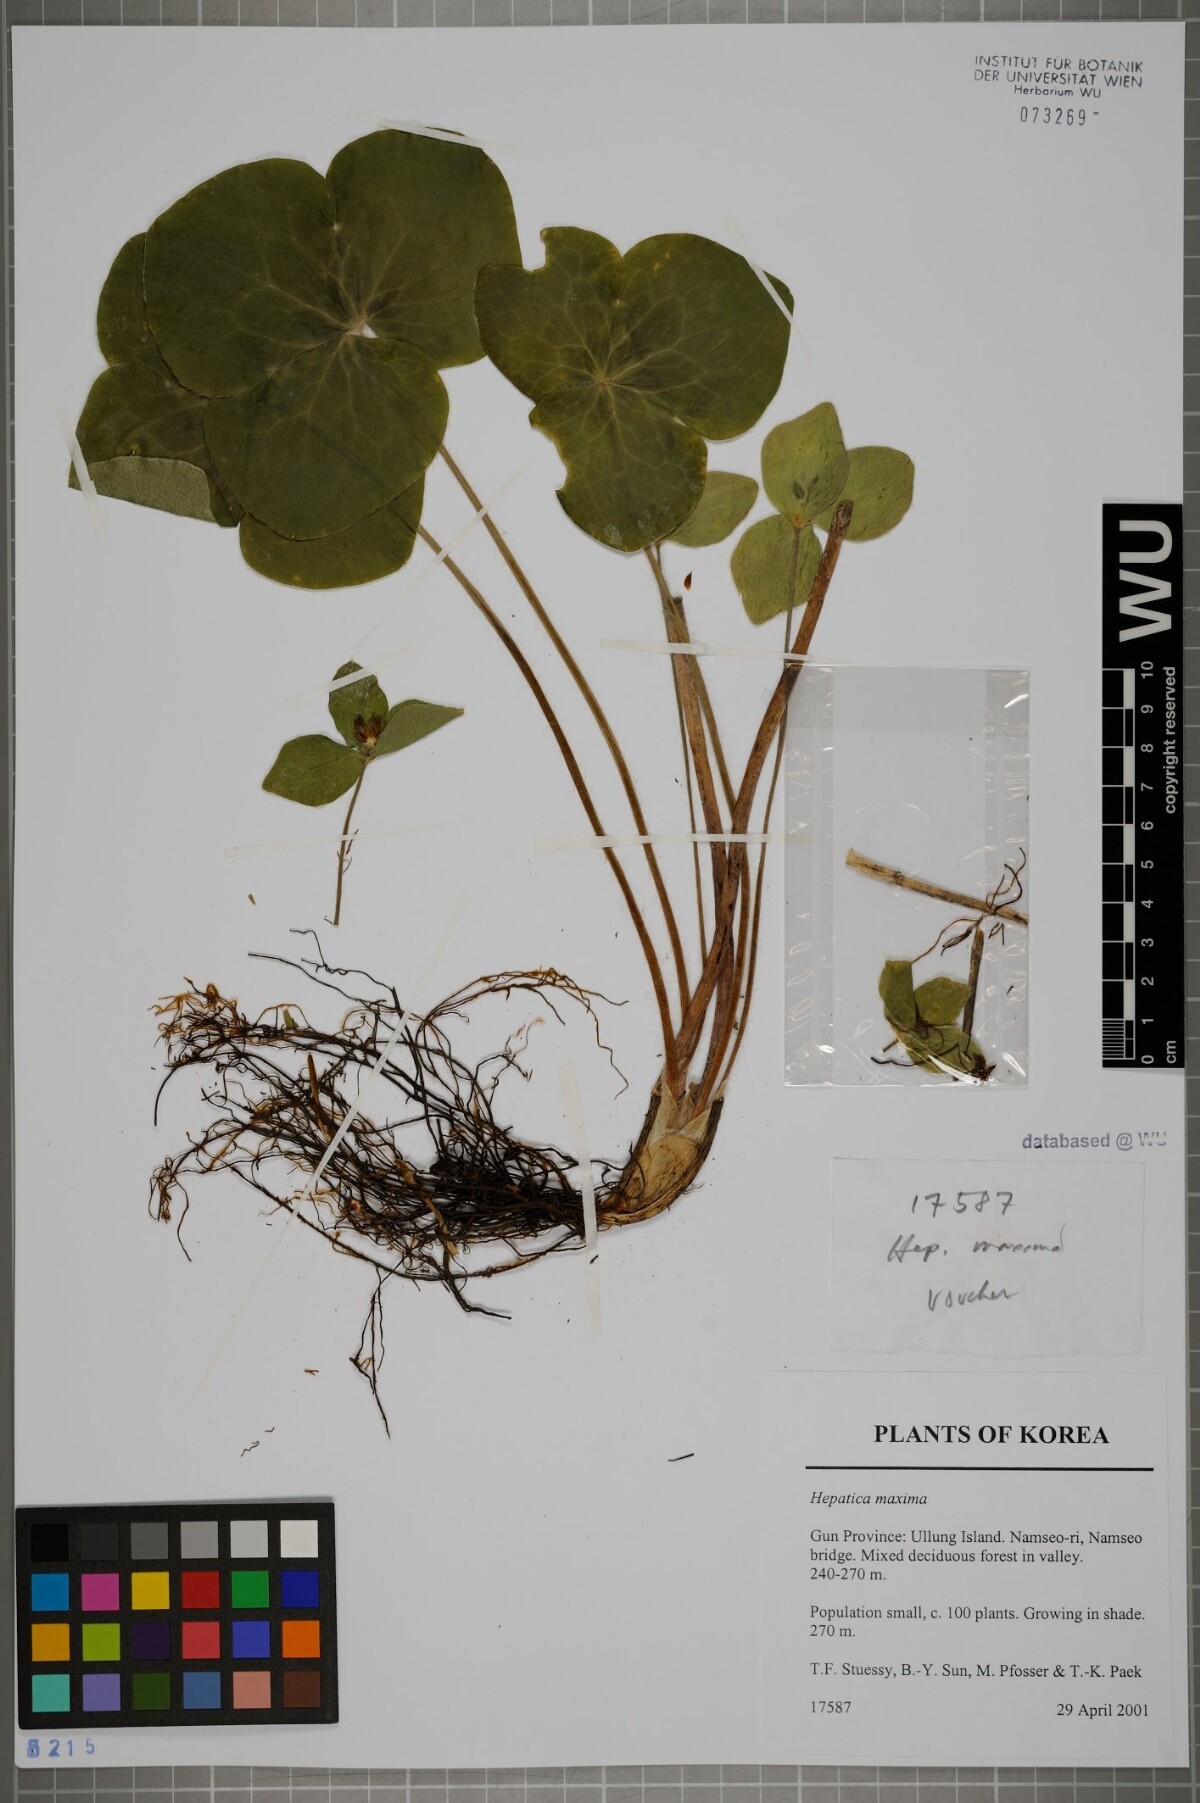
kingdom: Plantae
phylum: Tracheophyta
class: Magnoliopsida
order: Ranunculales
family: Ranunculaceae
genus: Hepatica
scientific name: Hepatica maxima
